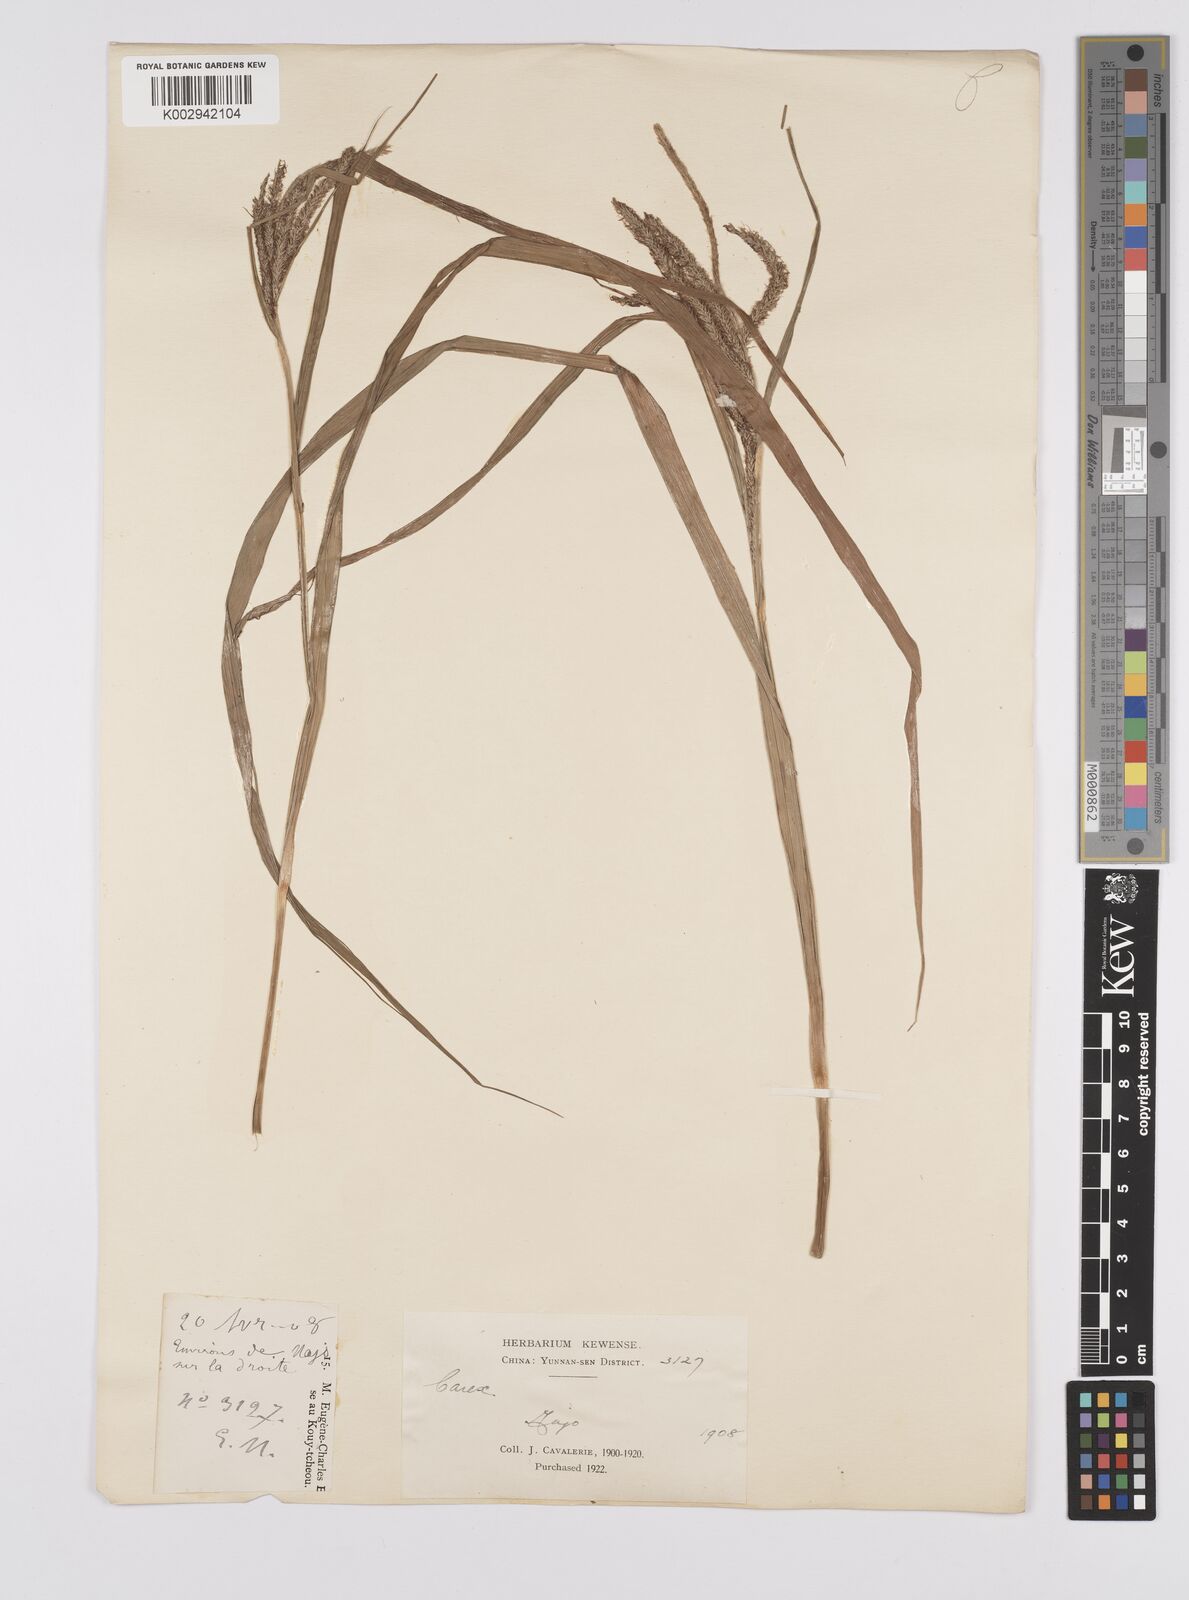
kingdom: Plantae
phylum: Tracheophyta
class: Liliopsida
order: Poales
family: Cyperaceae
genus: Carex
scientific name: Carex japonica
